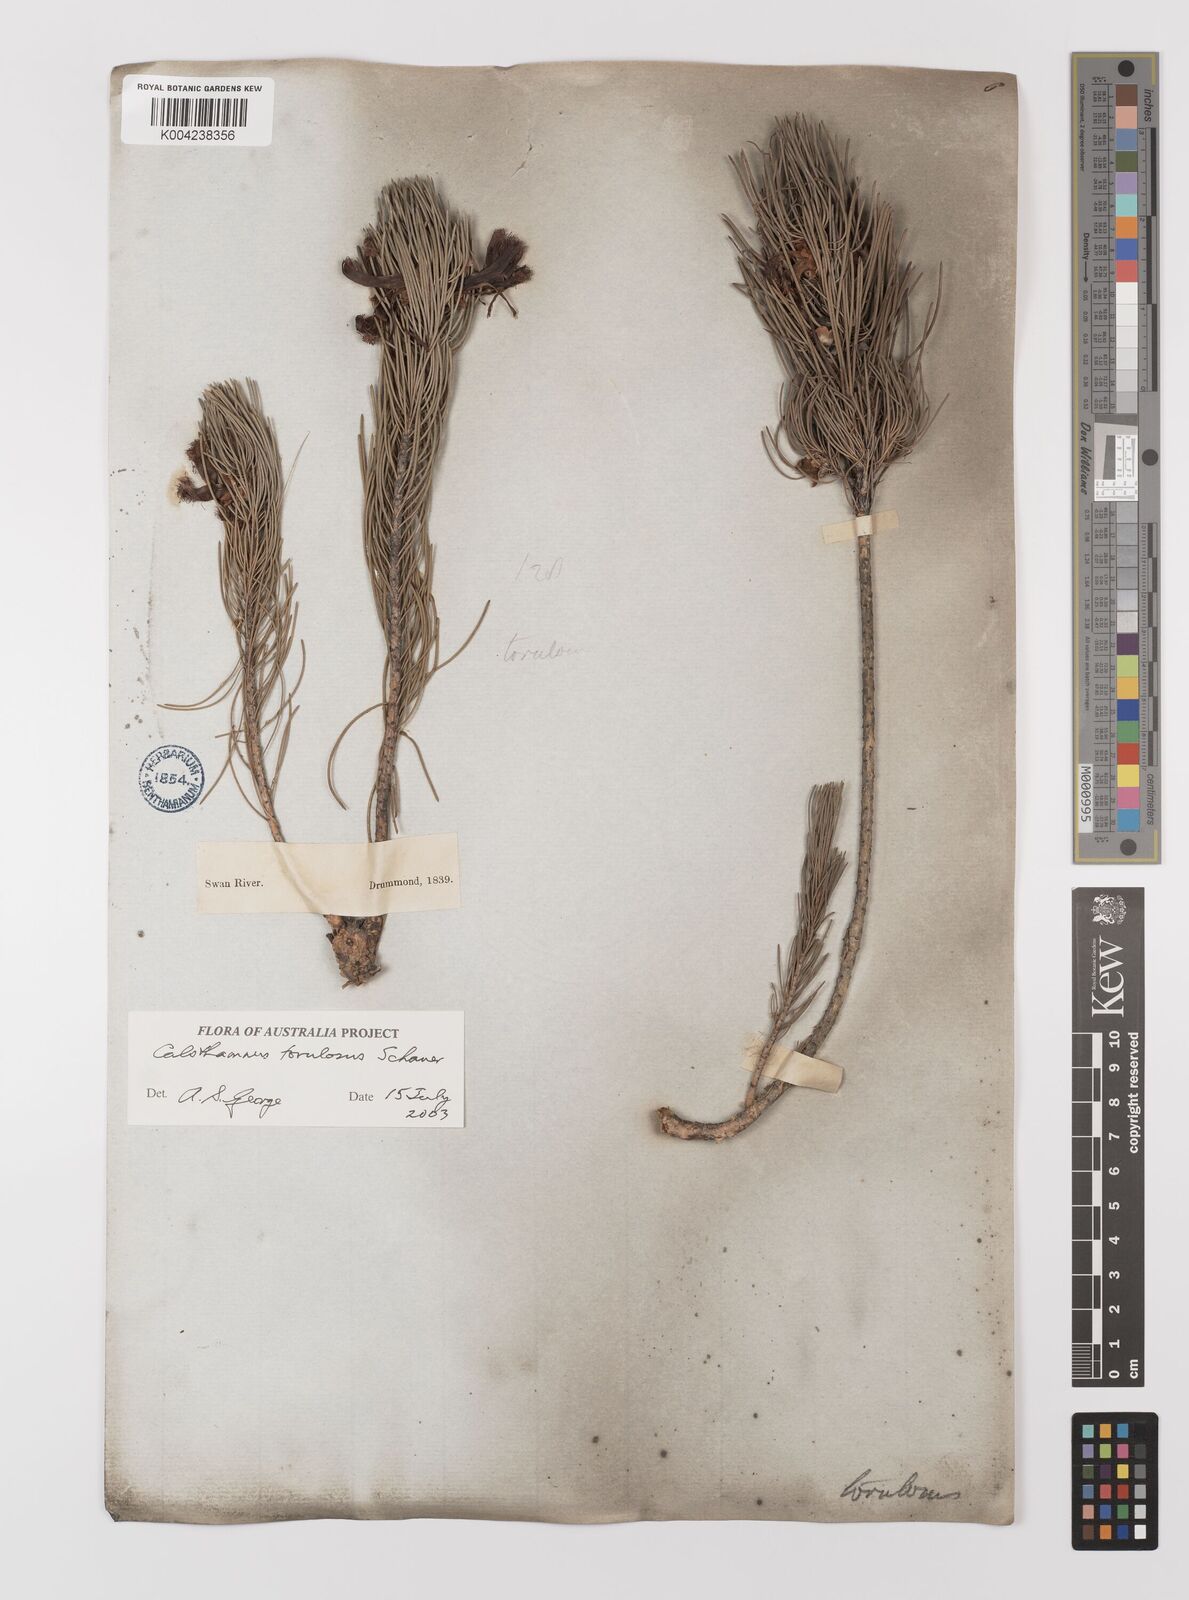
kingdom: Plantae
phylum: Tracheophyta
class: Magnoliopsida
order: Myrtales
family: Myrtaceae
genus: Melaleuca
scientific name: Melaleuca torulosa
